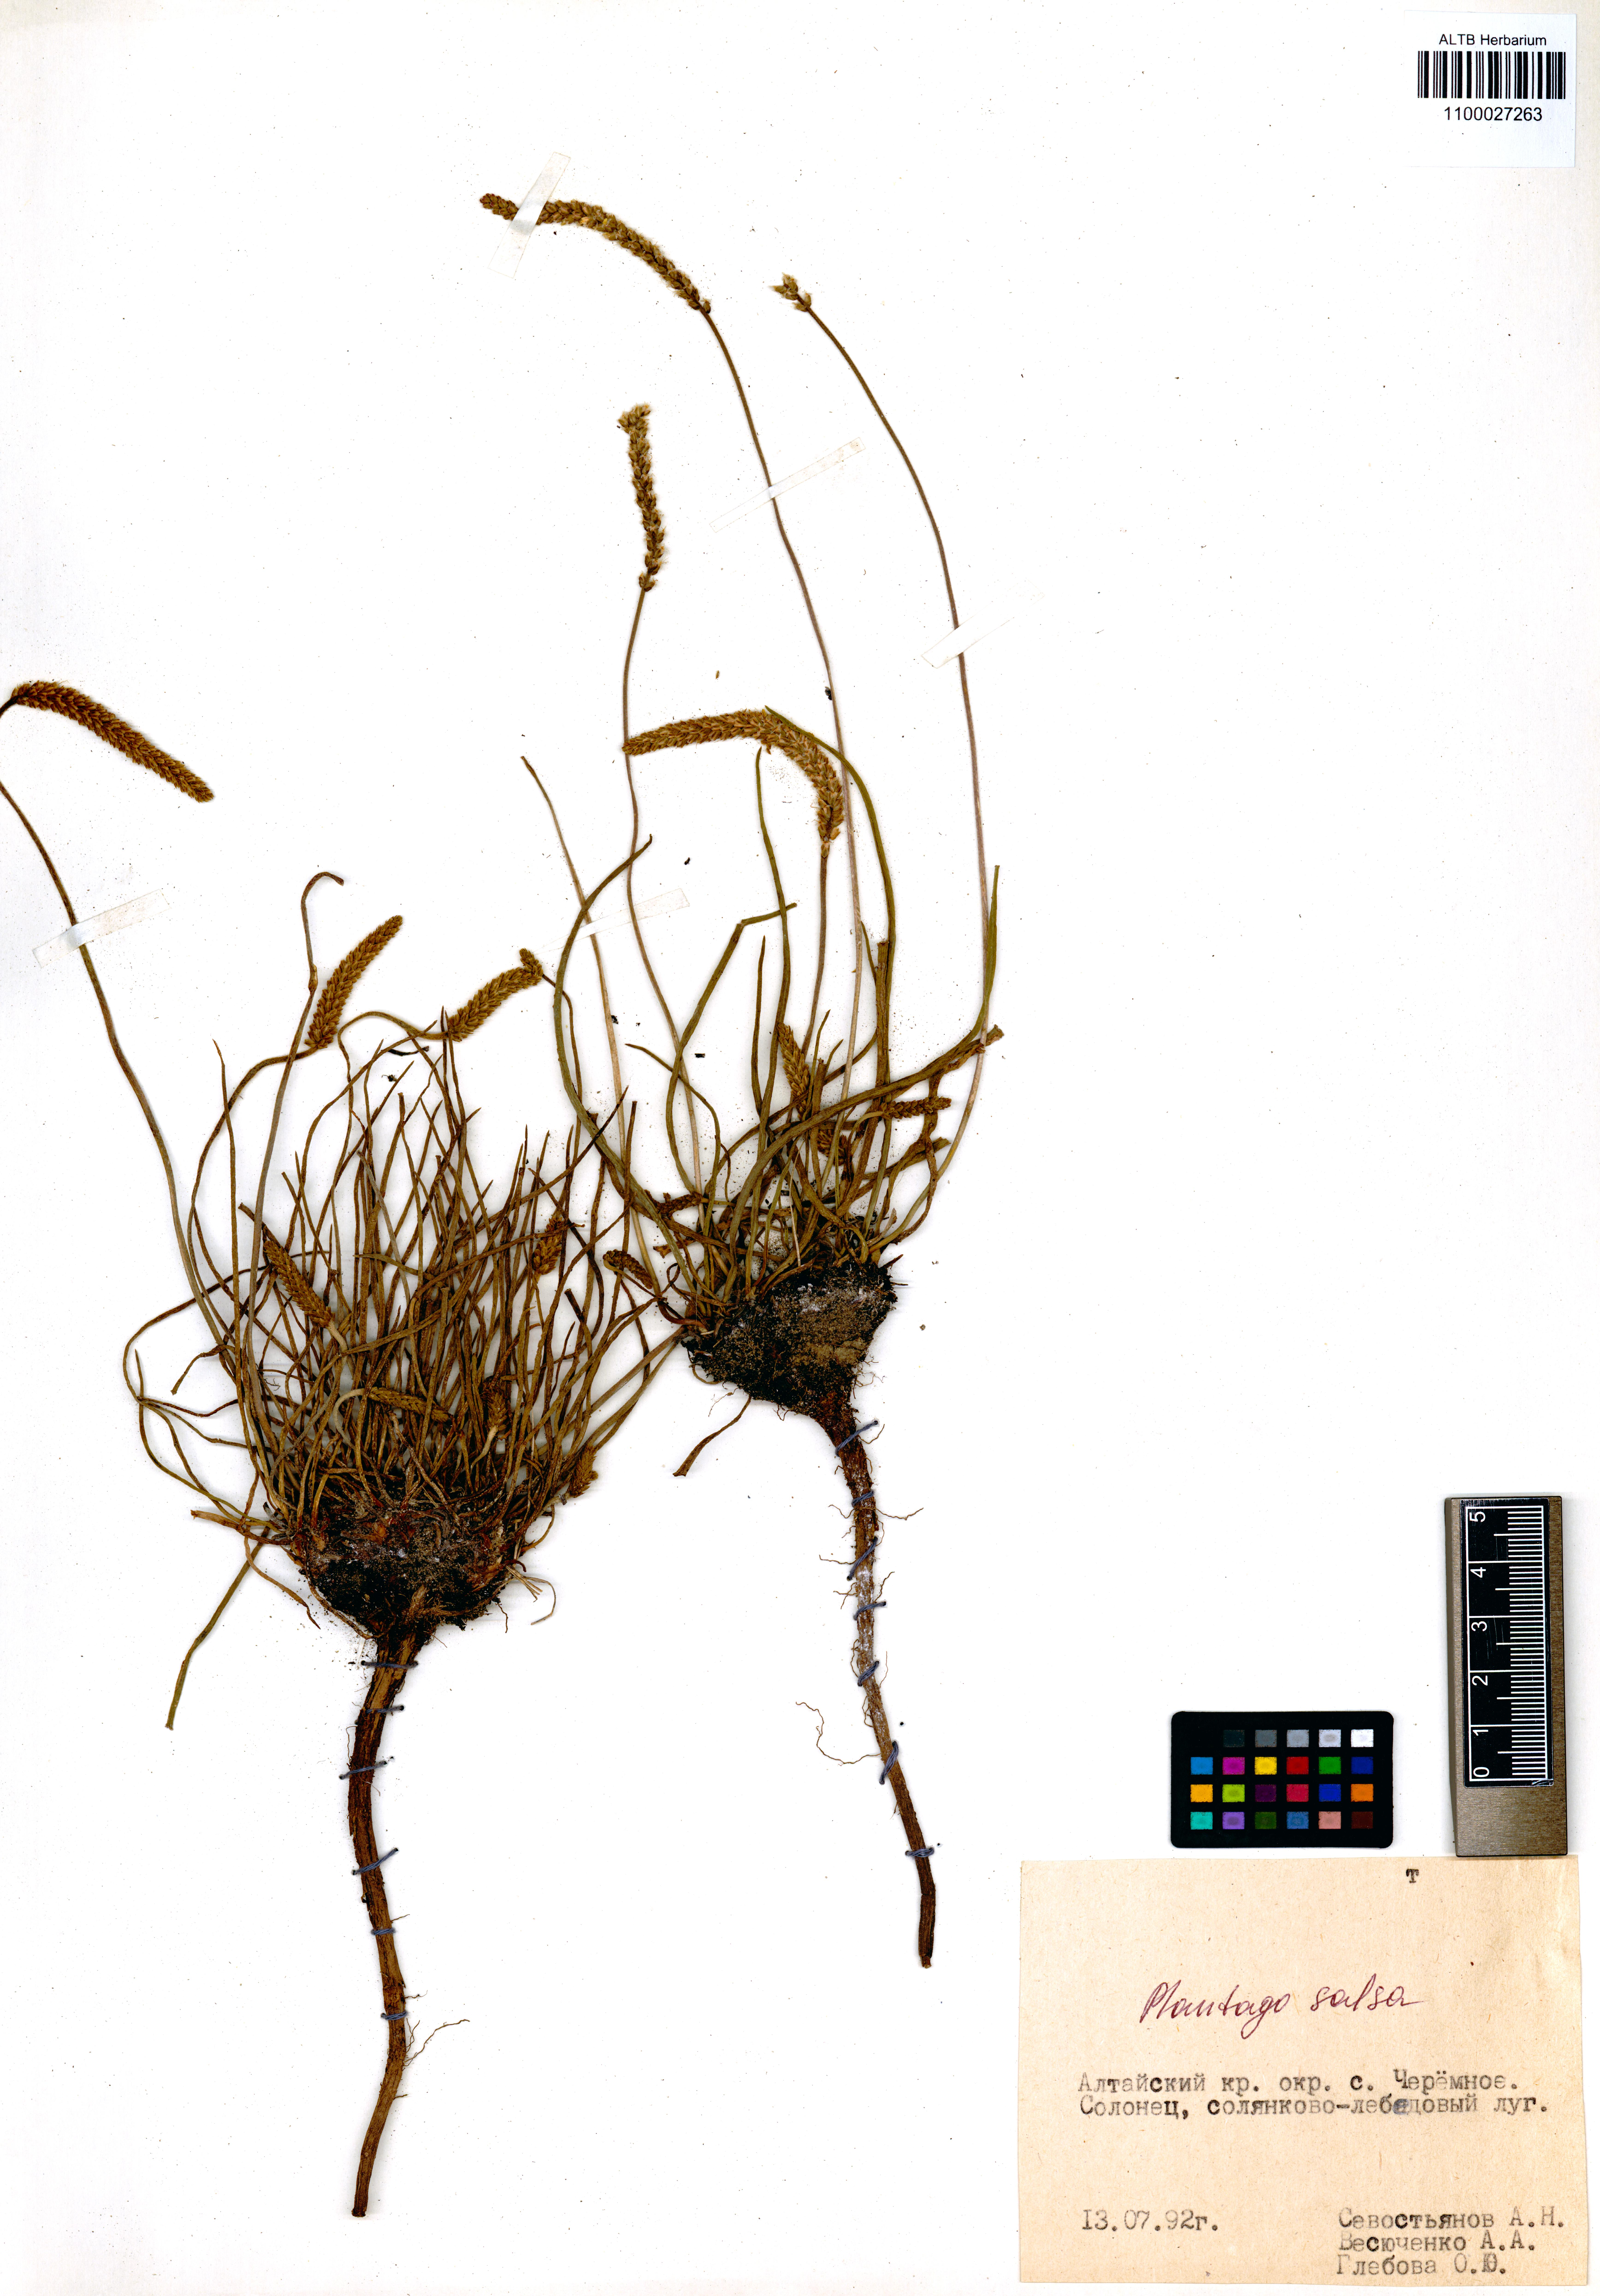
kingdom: Plantae
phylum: Tracheophyta
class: Magnoliopsida
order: Lamiales
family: Plantaginaceae
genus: Plantago
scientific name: Plantago salsa
